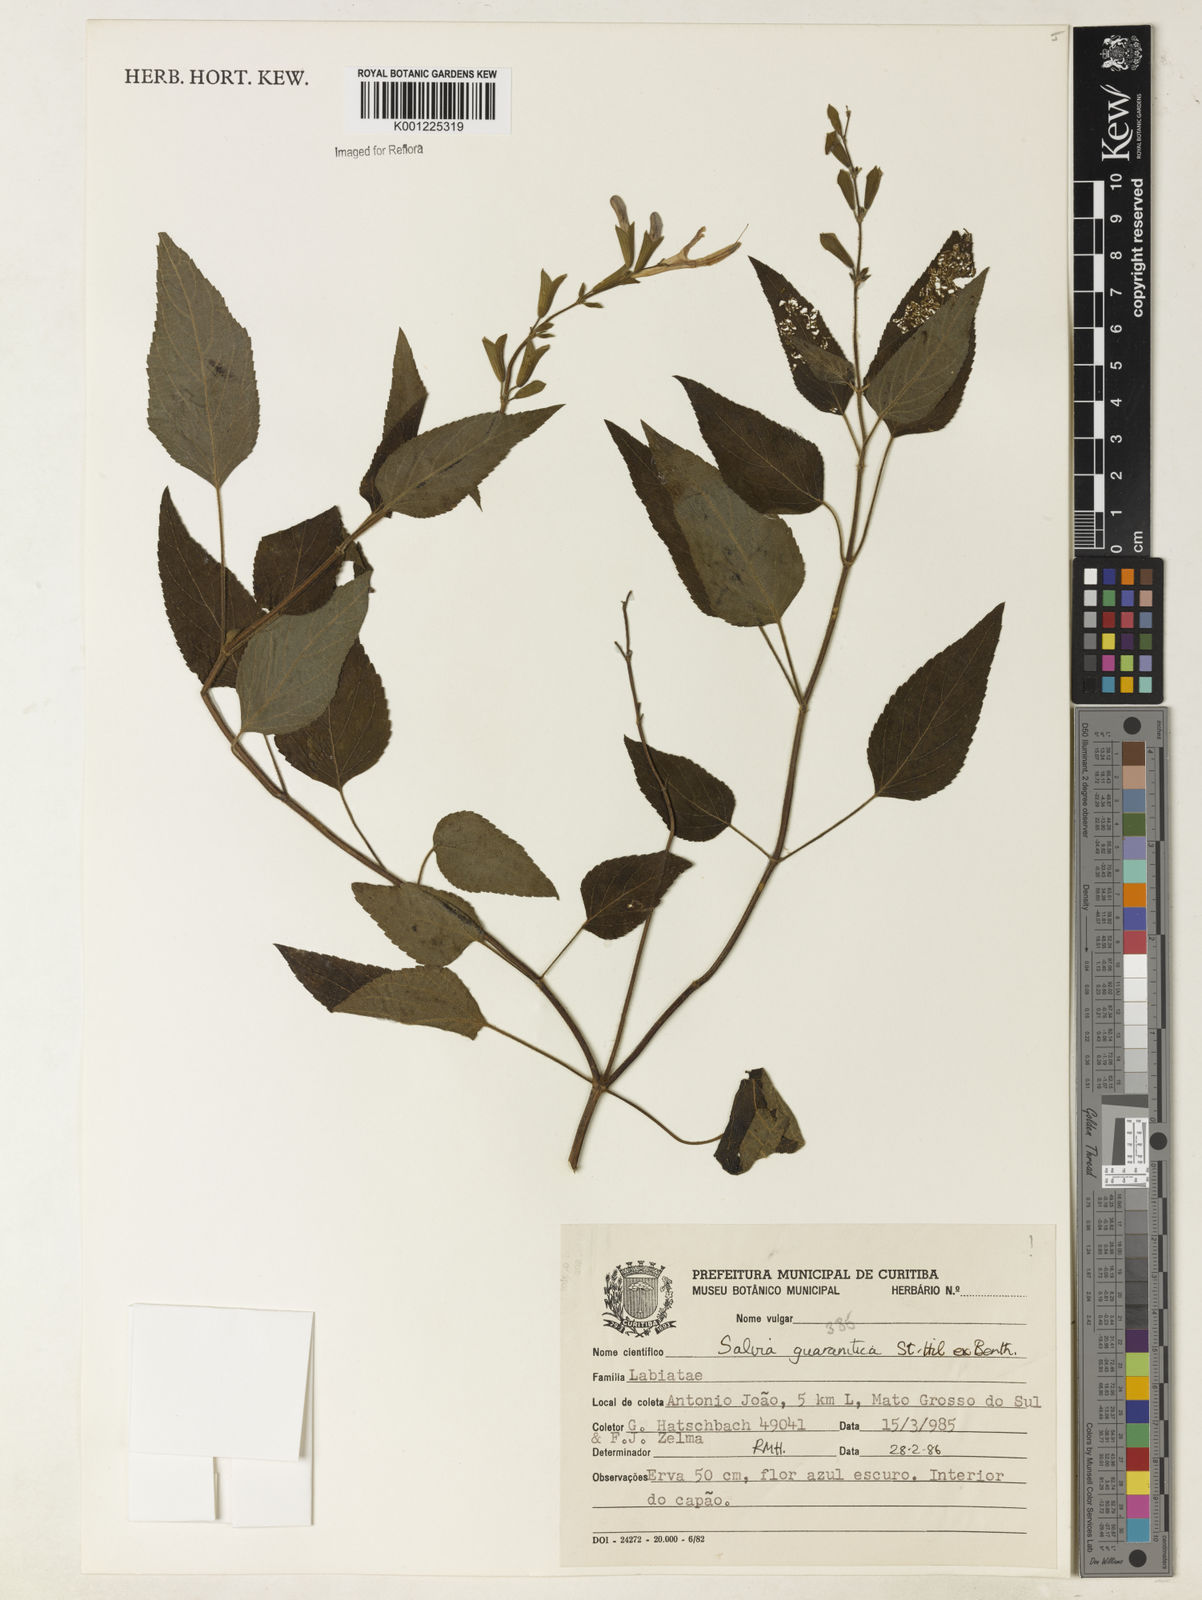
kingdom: Plantae
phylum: Tracheophyta
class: Magnoliopsida
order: Lamiales
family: Lamiaceae
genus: Salvia
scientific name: Salvia guaranitica
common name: Anise-scented sage
